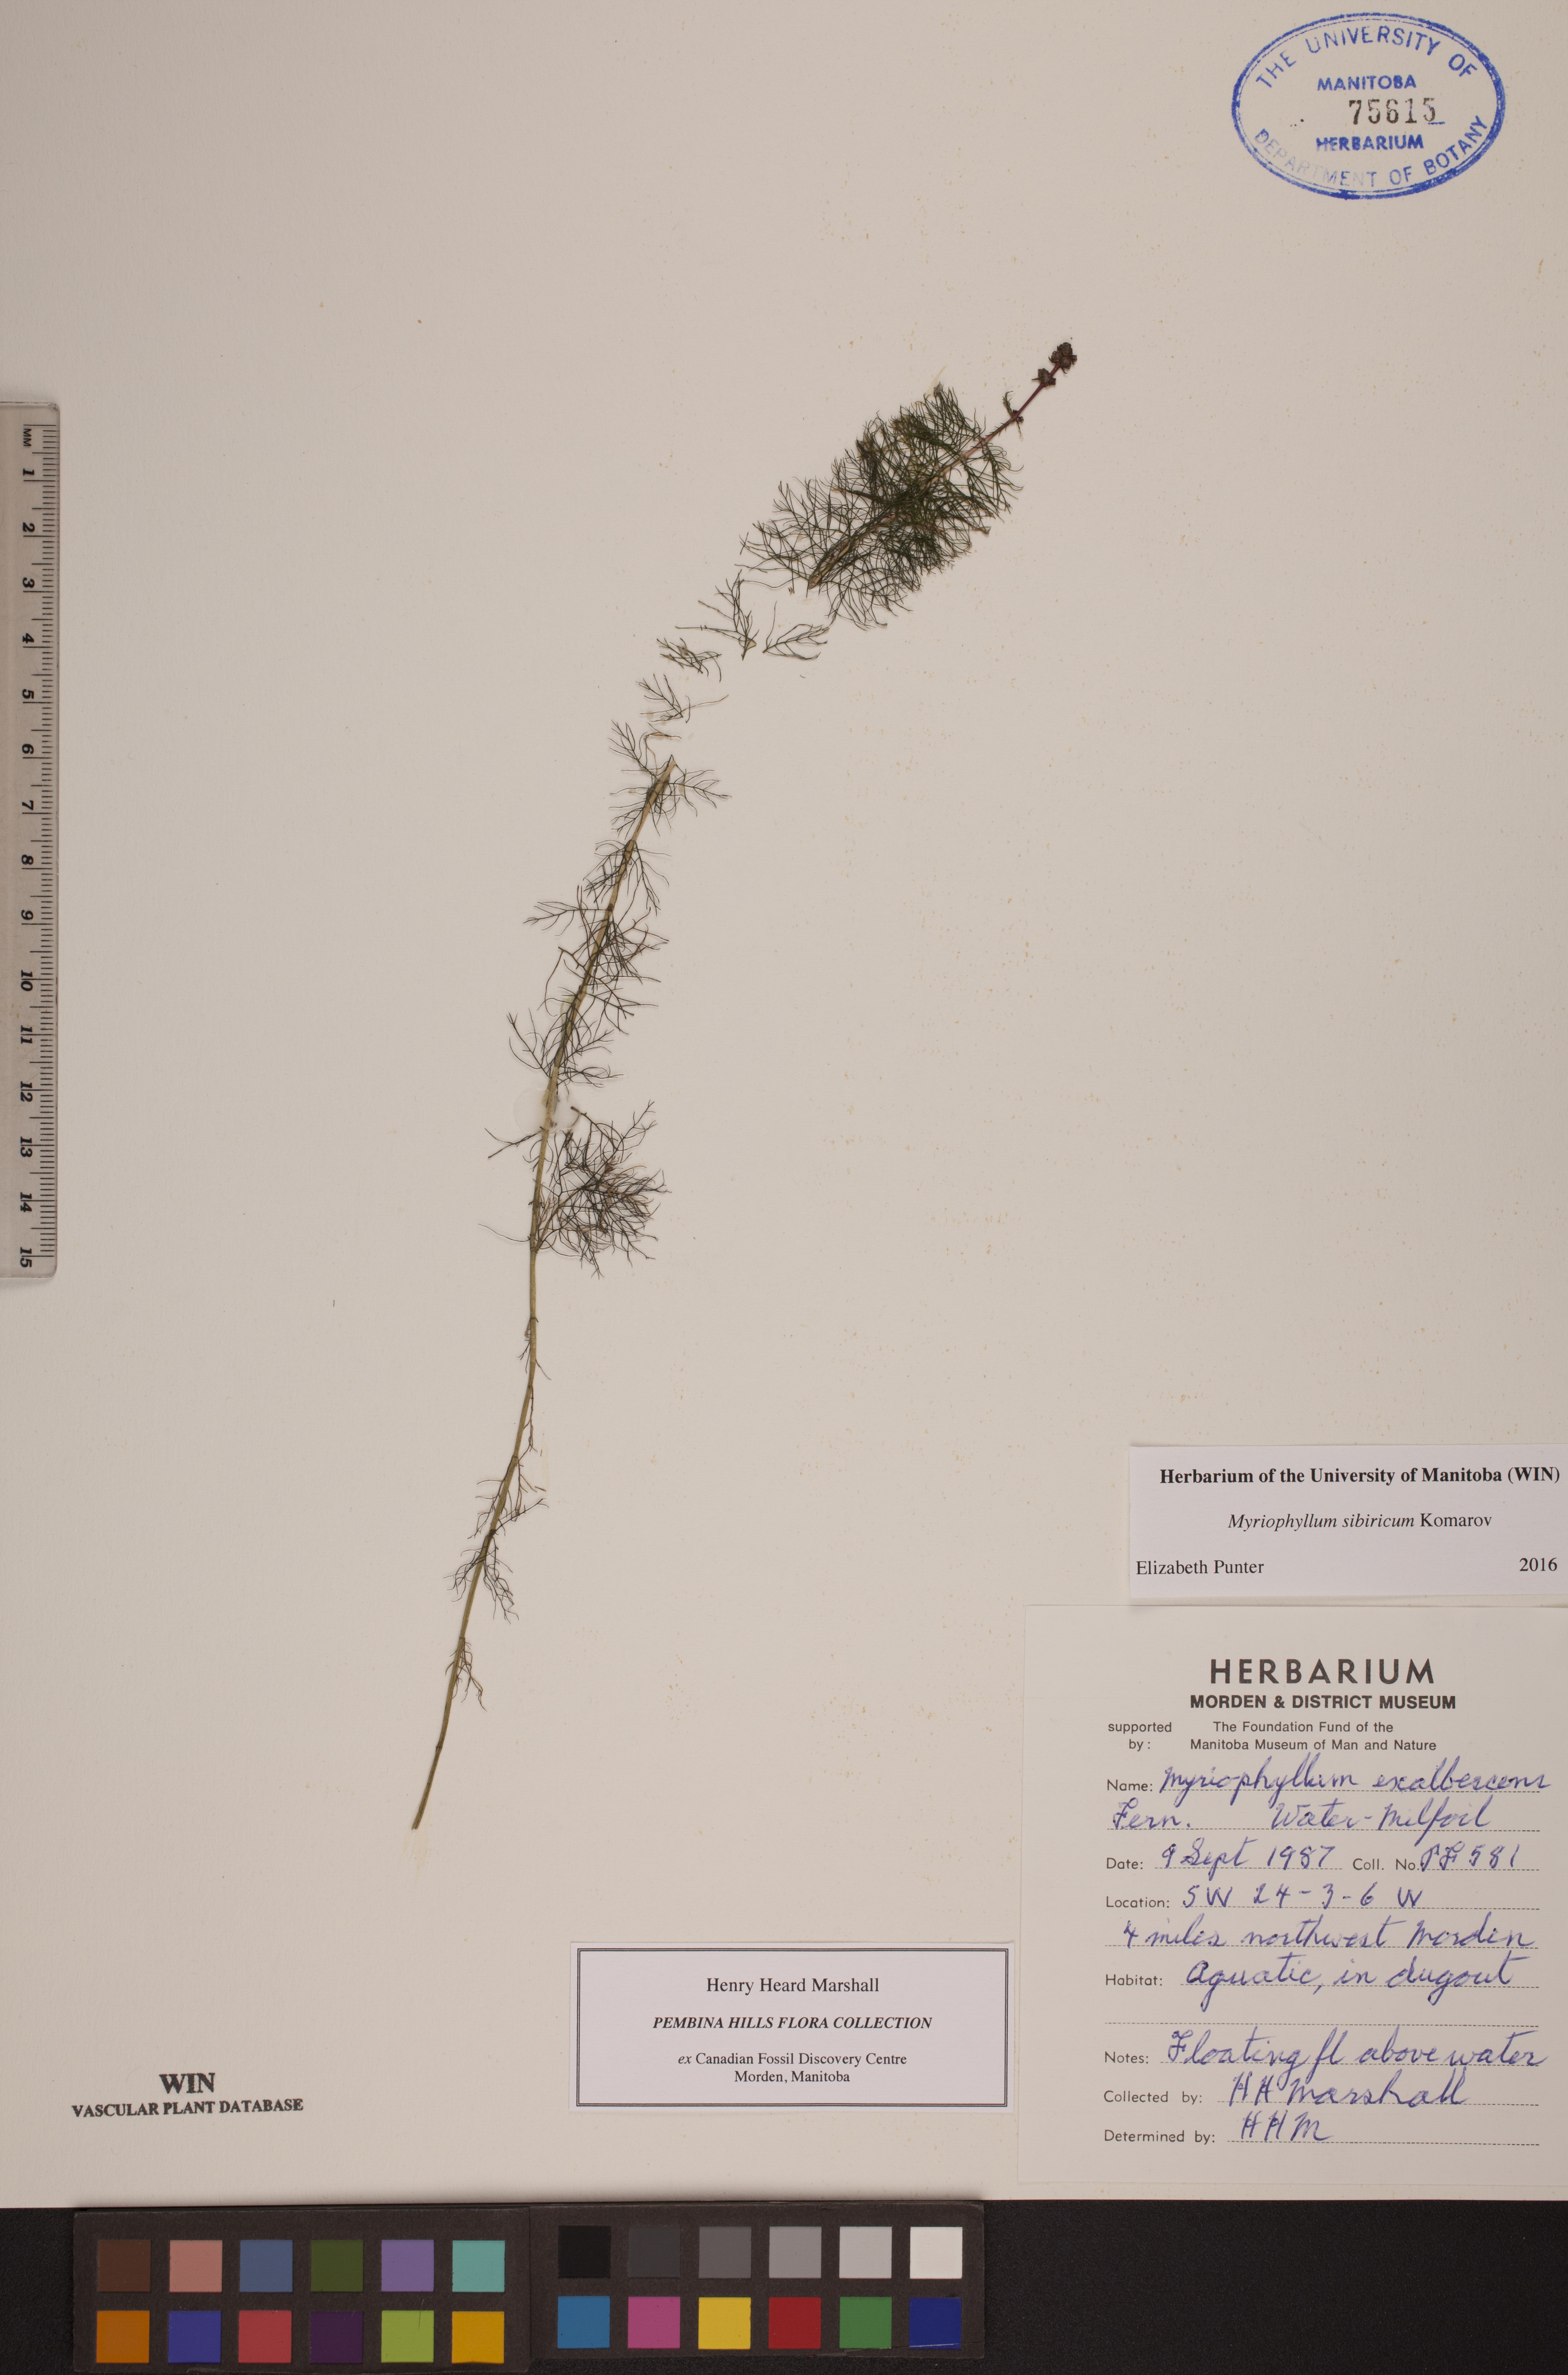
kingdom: Plantae
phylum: Tracheophyta
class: Magnoliopsida
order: Saxifragales
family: Haloragaceae
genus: Myriophyllum
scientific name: Myriophyllum sibiricum
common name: Siberian water-milfoil
